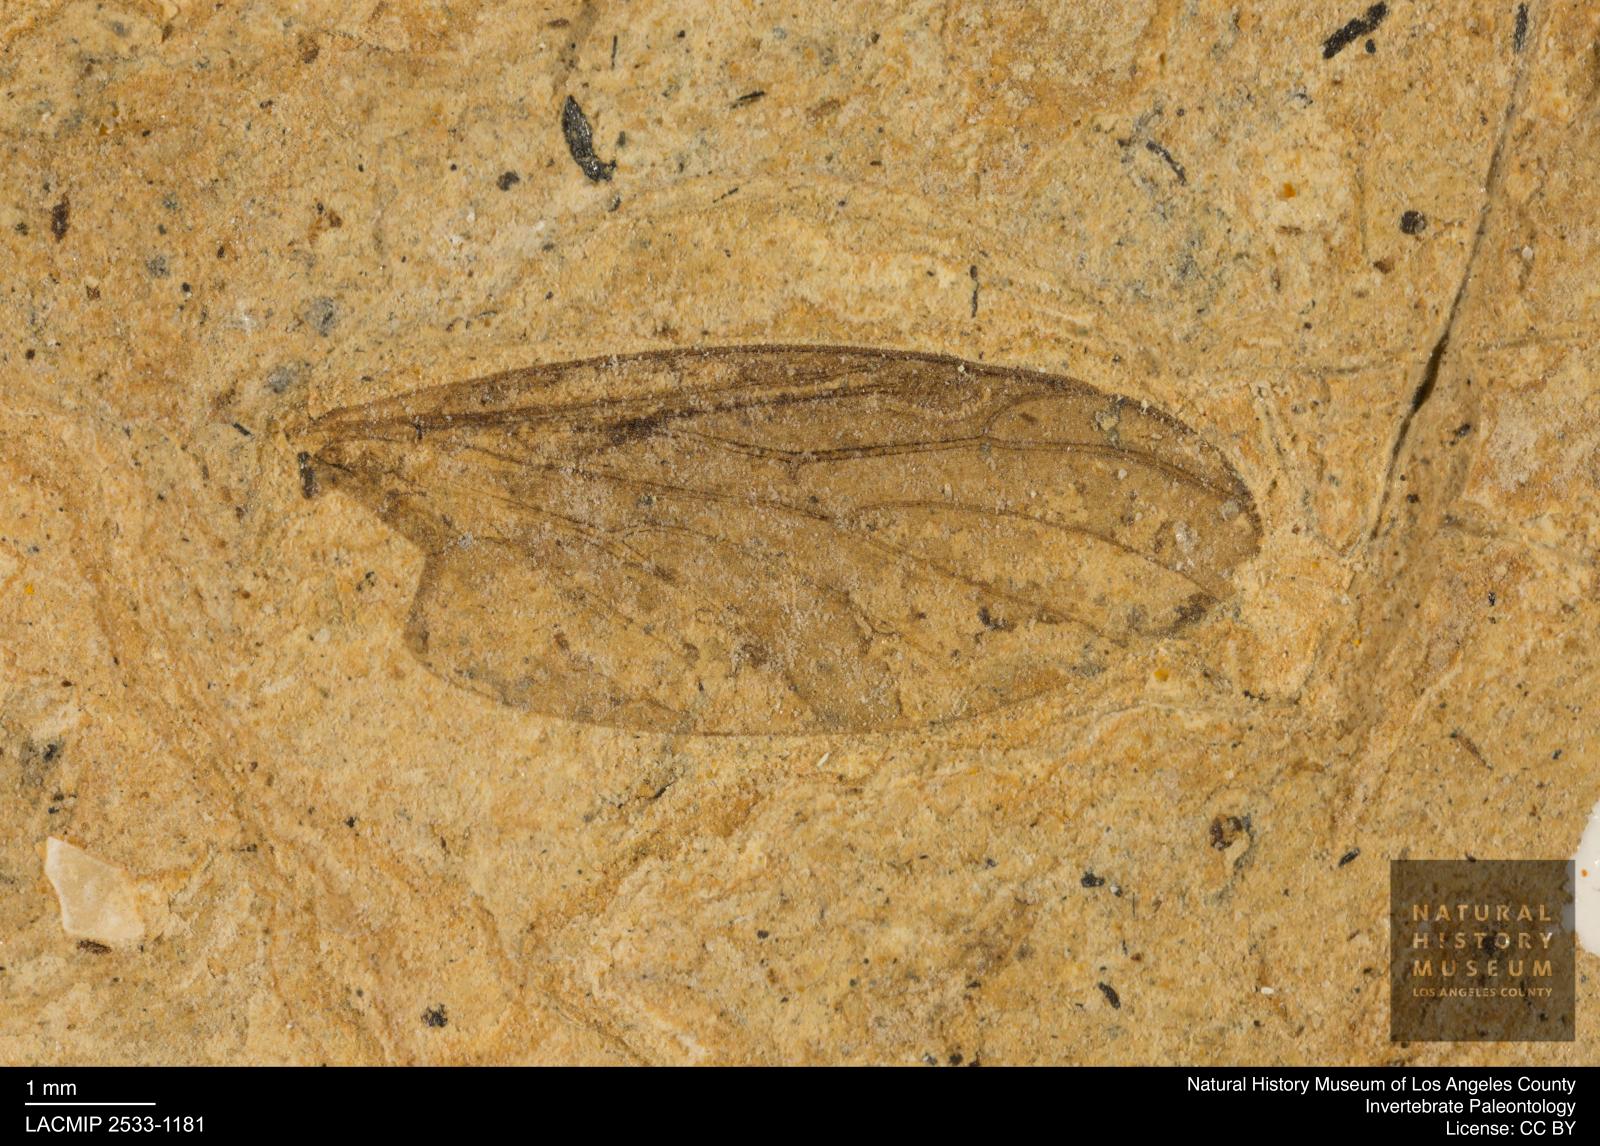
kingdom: Animalia
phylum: Arthropoda
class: Insecta
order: Diptera
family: Bibionidae
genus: Plecia
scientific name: Plecia grossa
